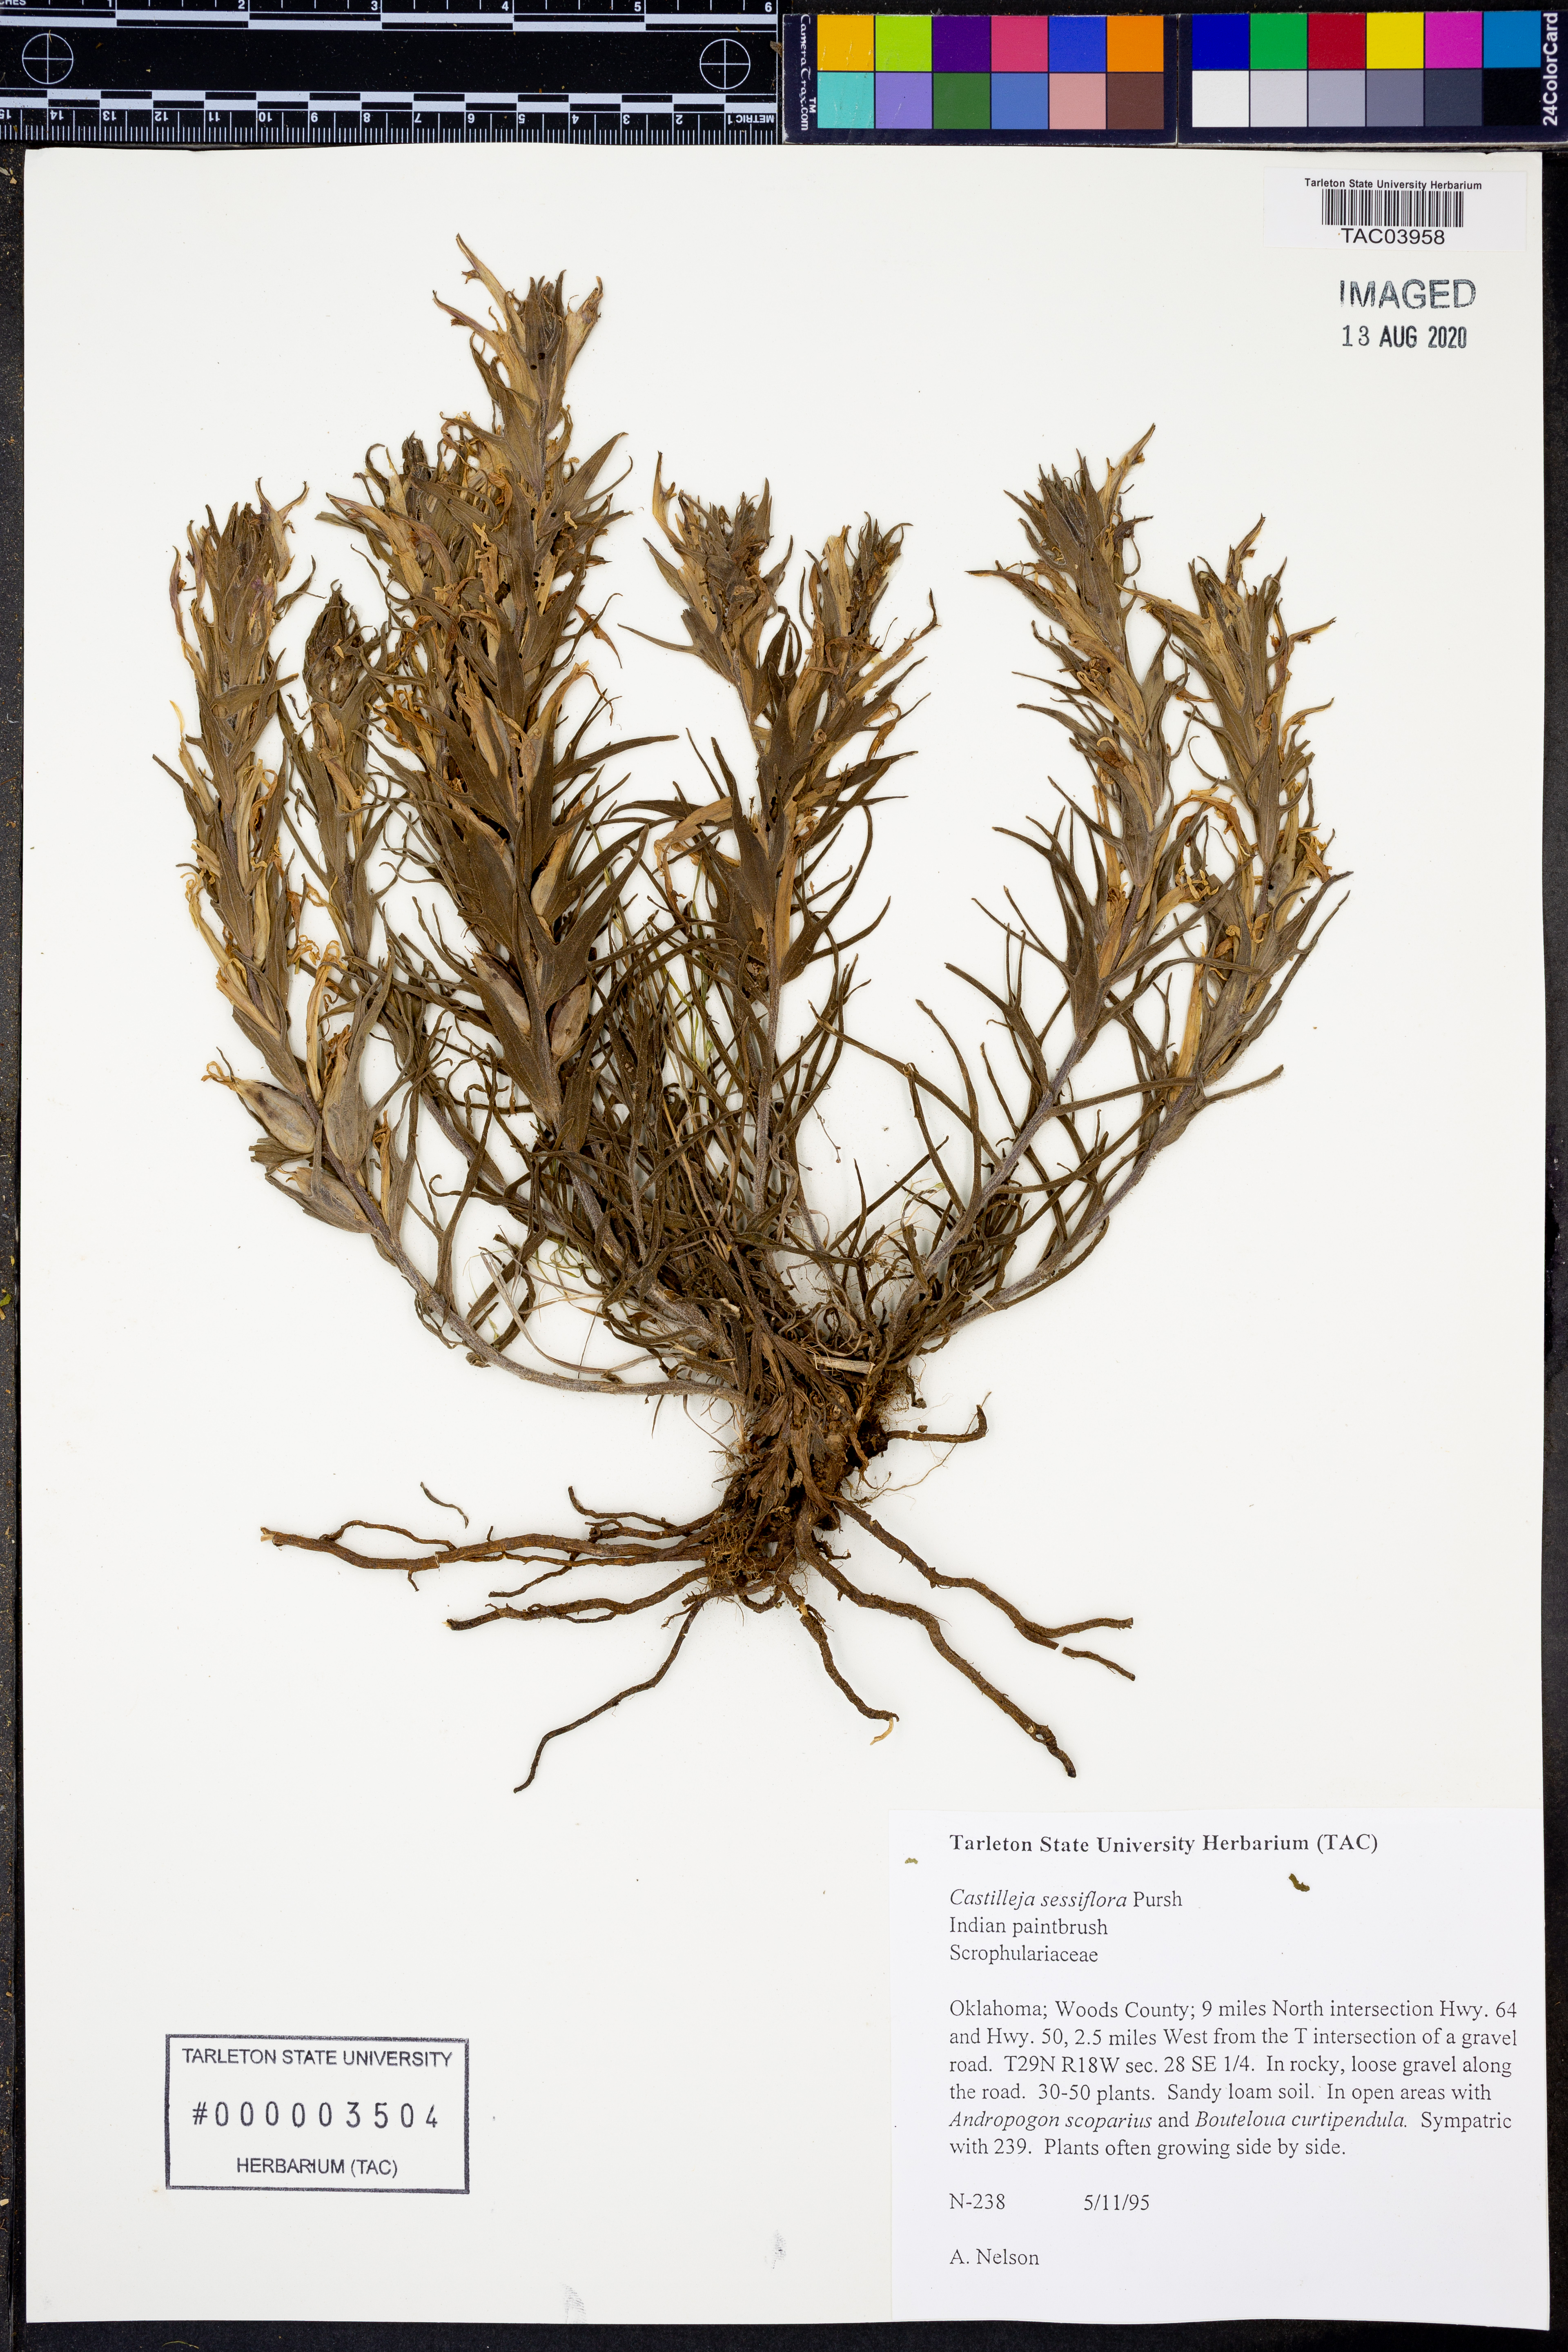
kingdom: Plantae
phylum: Tracheophyta
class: Magnoliopsida
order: Lamiales
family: Orobanchaceae
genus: Castilleja
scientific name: Castilleja sessiliflora
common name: Downy paintbrush
